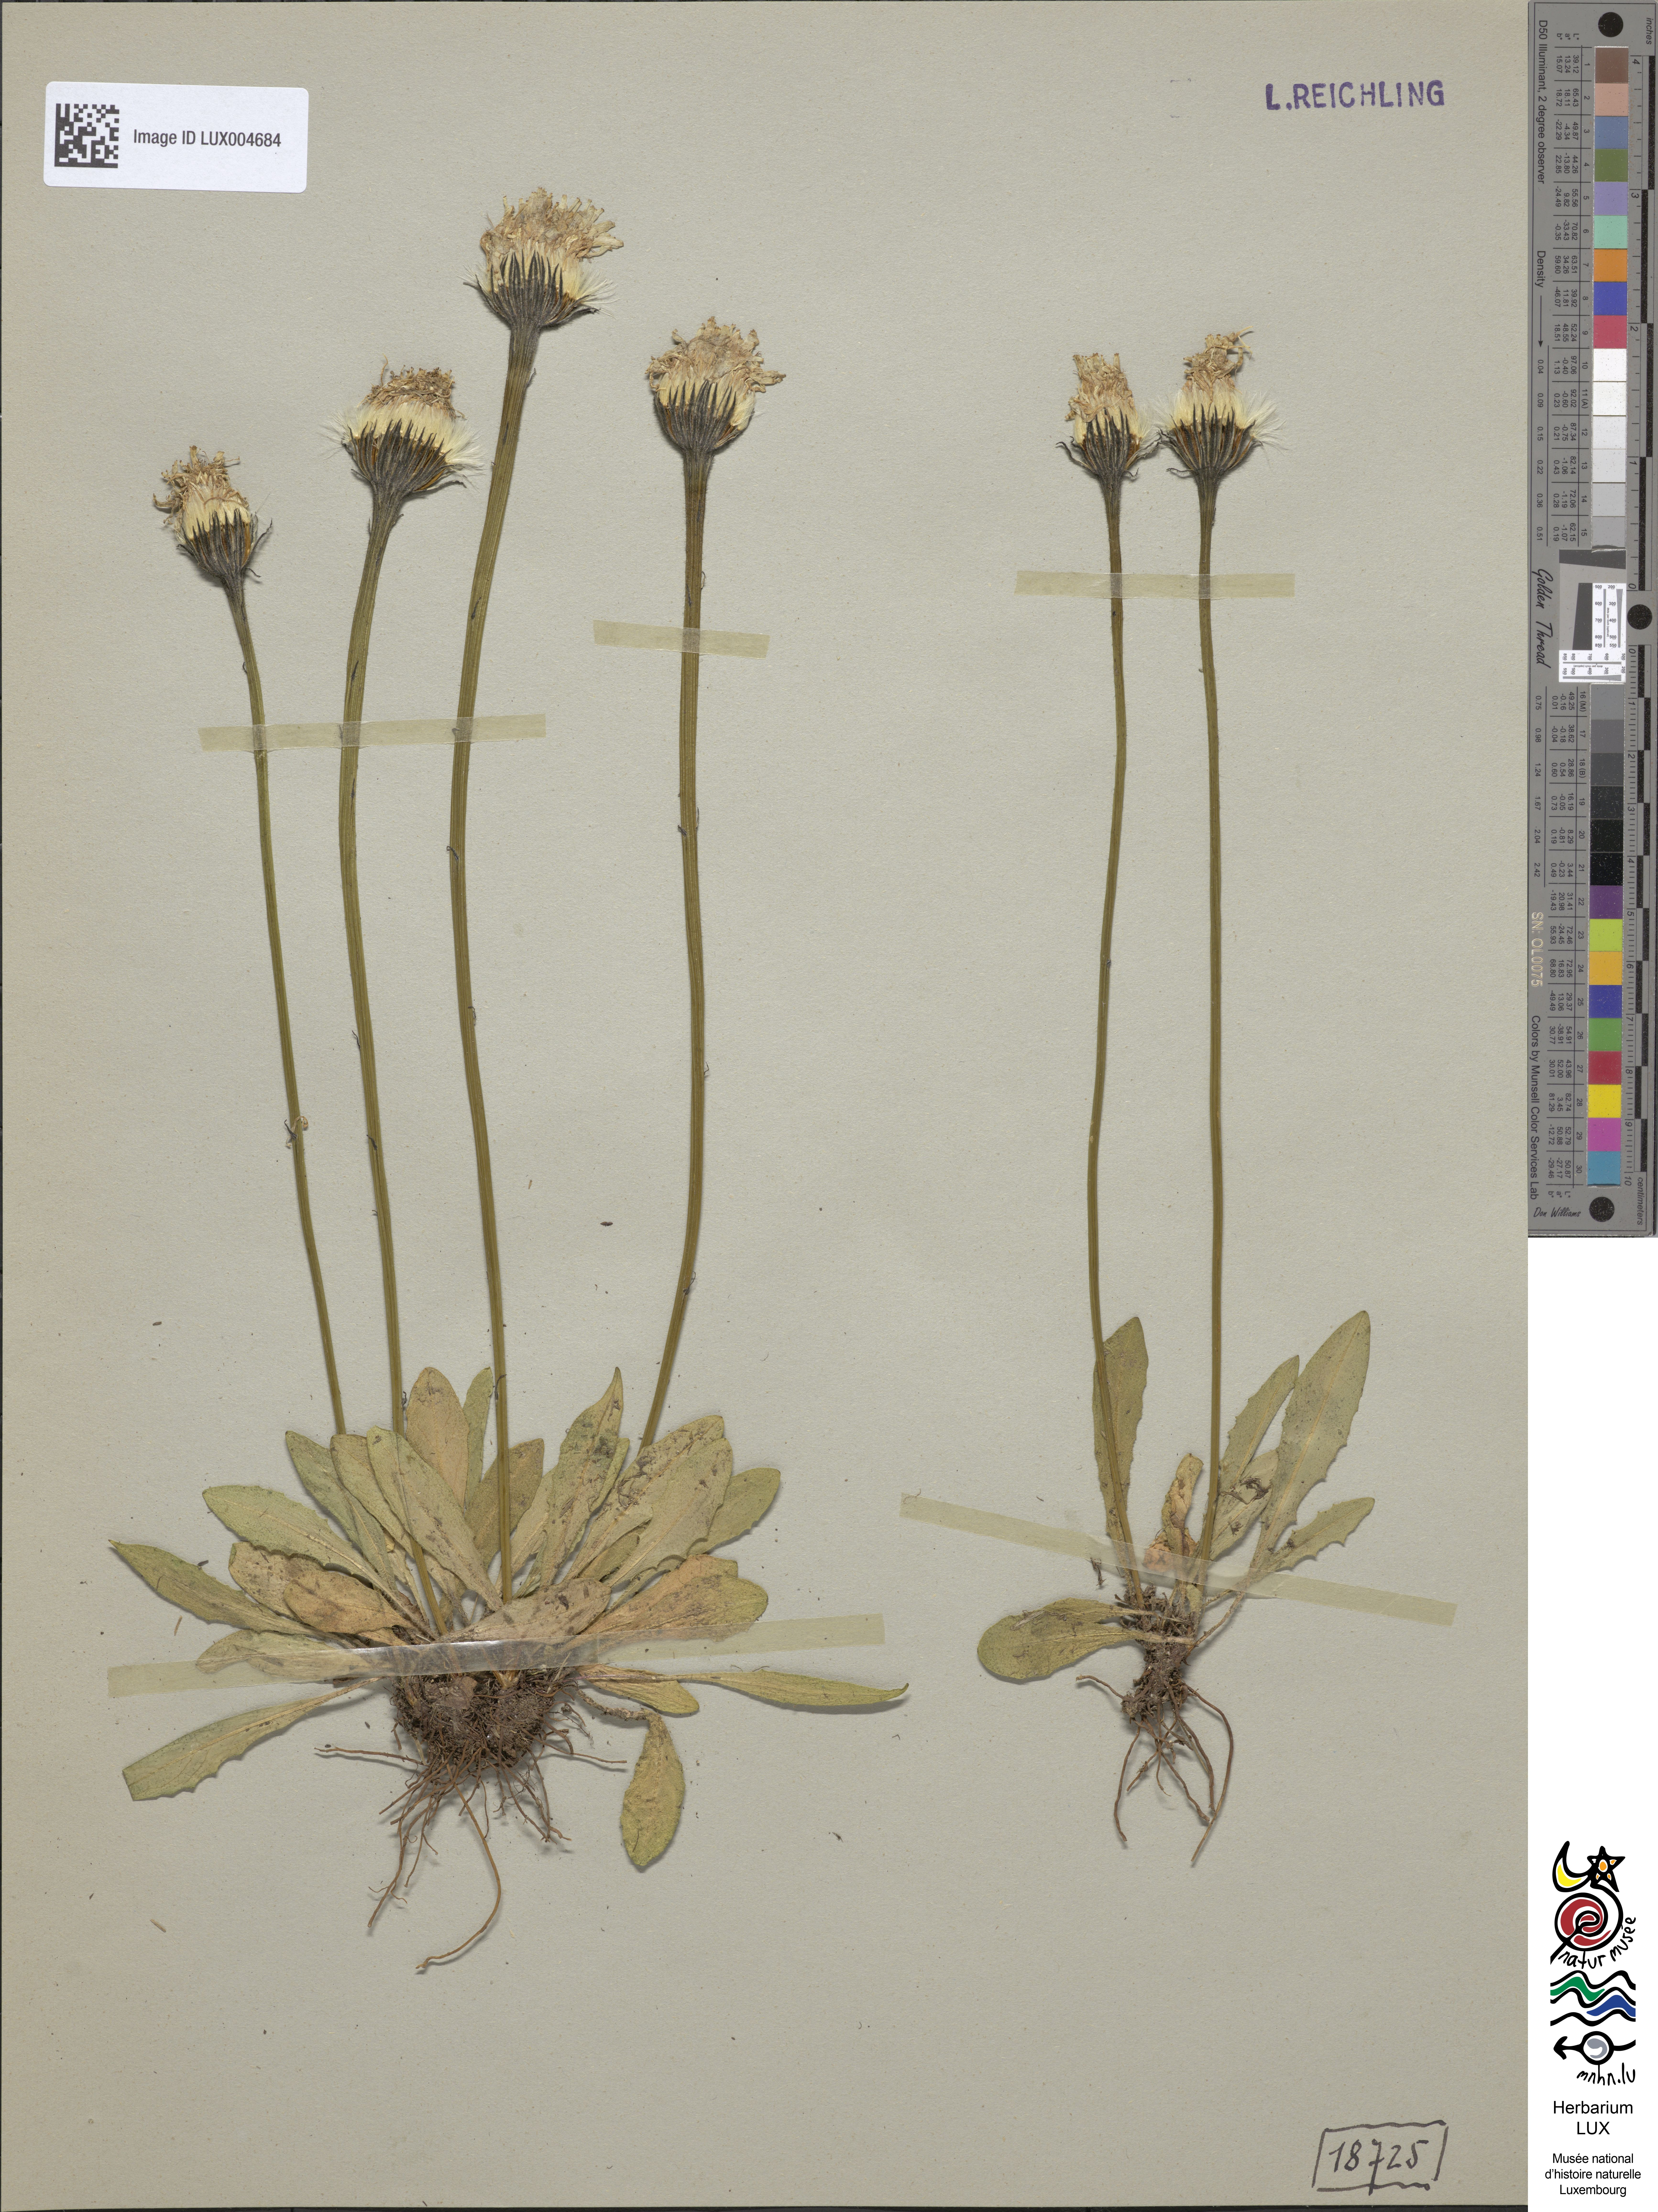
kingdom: Plantae
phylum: Tracheophyta
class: Magnoliopsida
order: Asterales
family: Asteraceae
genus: Scorzoneroides
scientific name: Scorzoneroides pyrenaica
